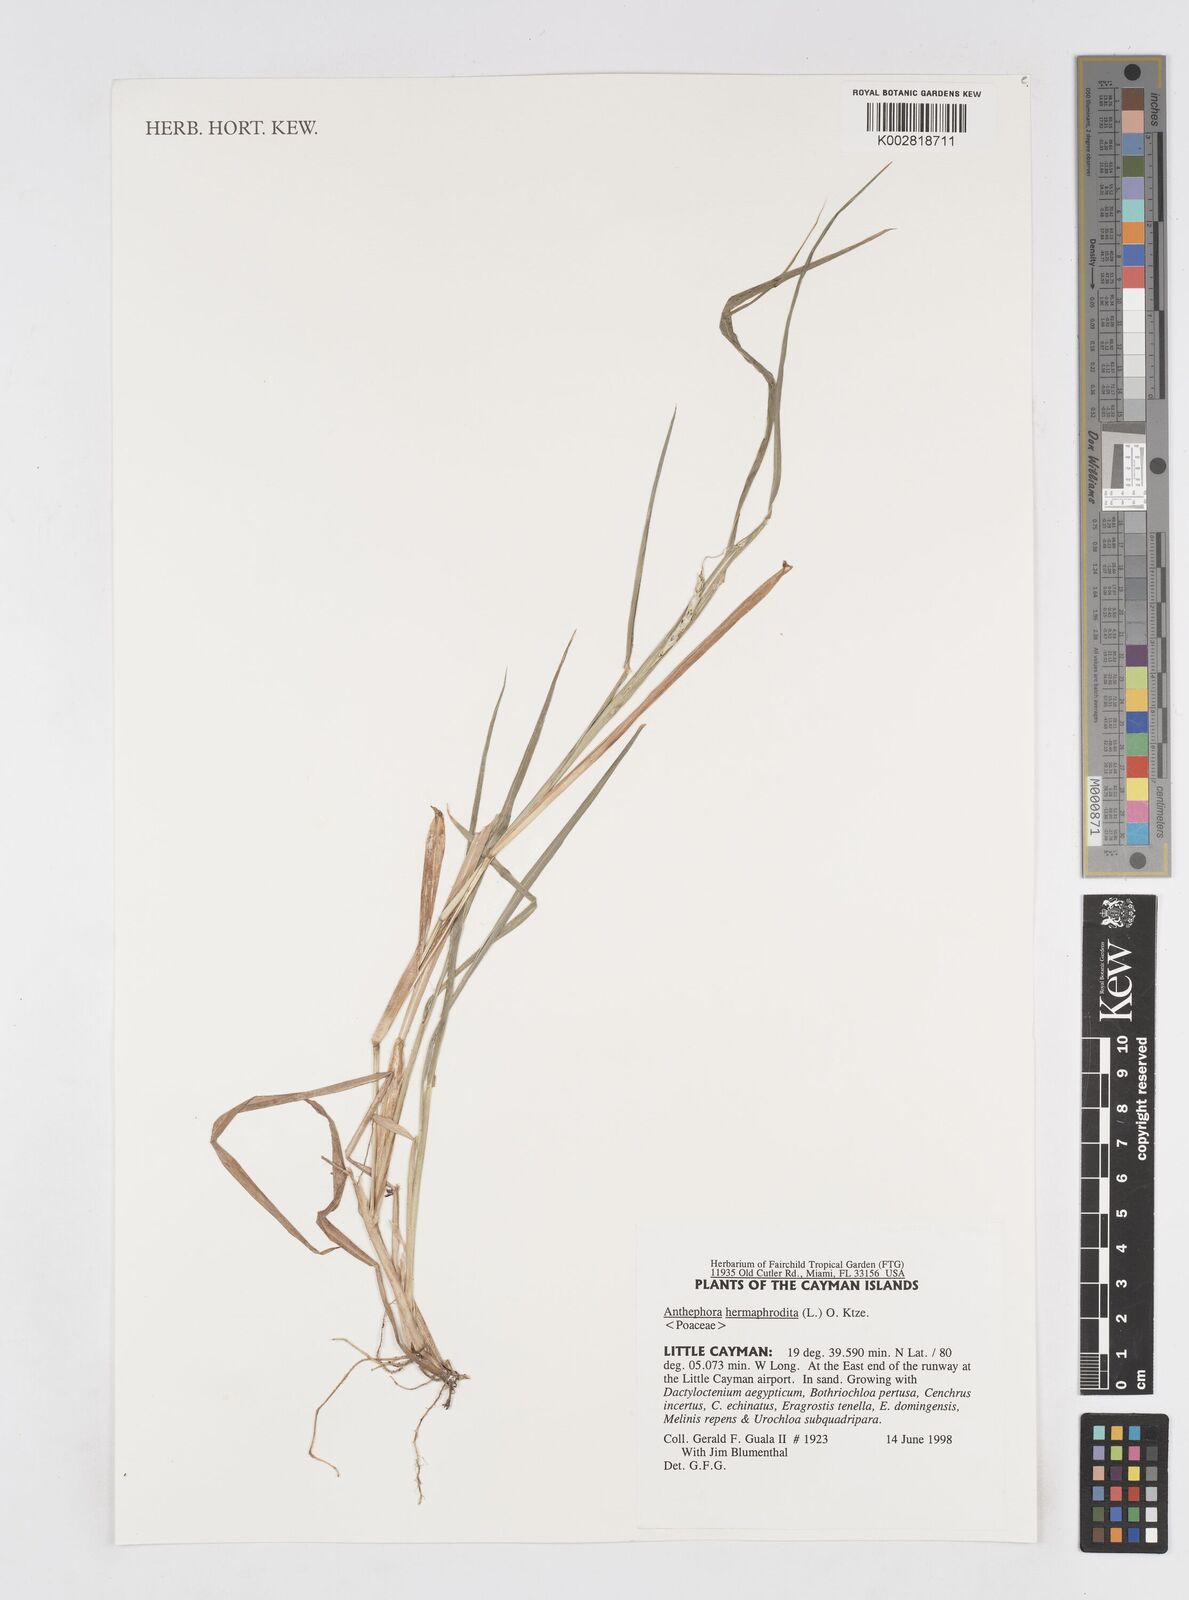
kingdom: Plantae
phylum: Tracheophyta
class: Liliopsida
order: Poales
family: Poaceae
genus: Anthephora
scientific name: Anthephora hermaphrodita
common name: Oldfield grass
